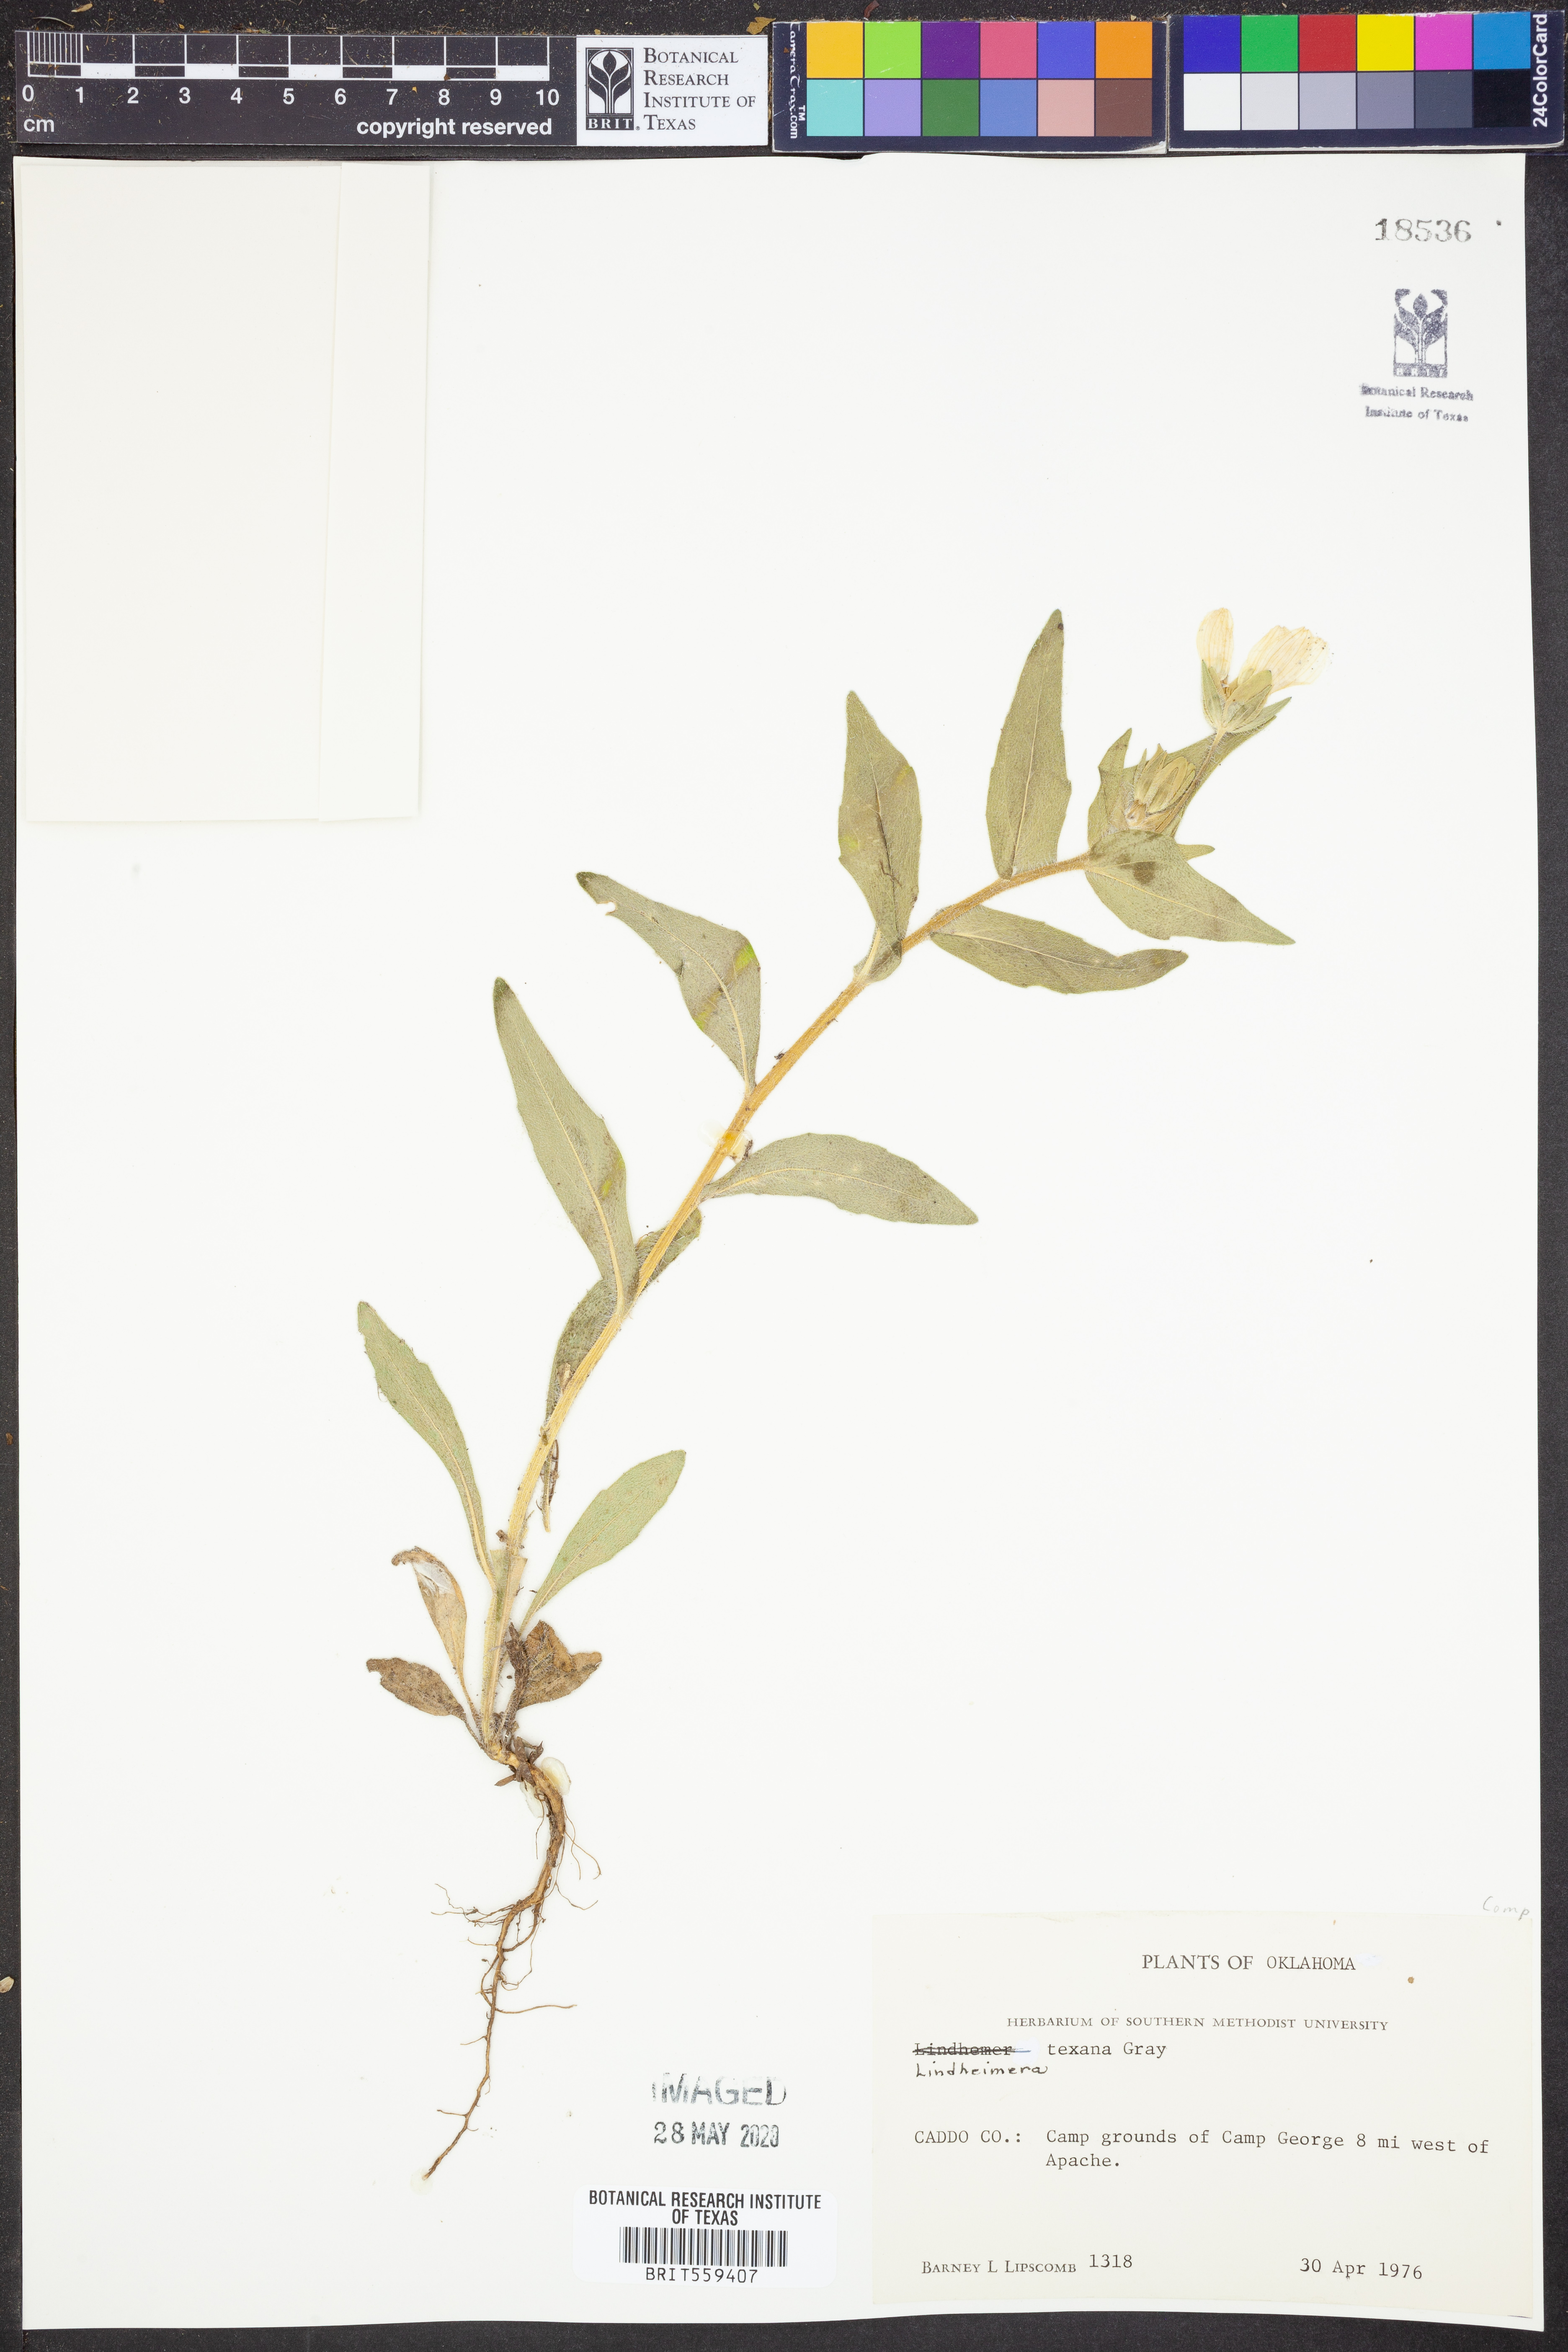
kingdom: Plantae
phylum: Tracheophyta
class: Magnoliopsida
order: Asterales
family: Asteraceae
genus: Lindheimera
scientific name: Lindheimera texana
